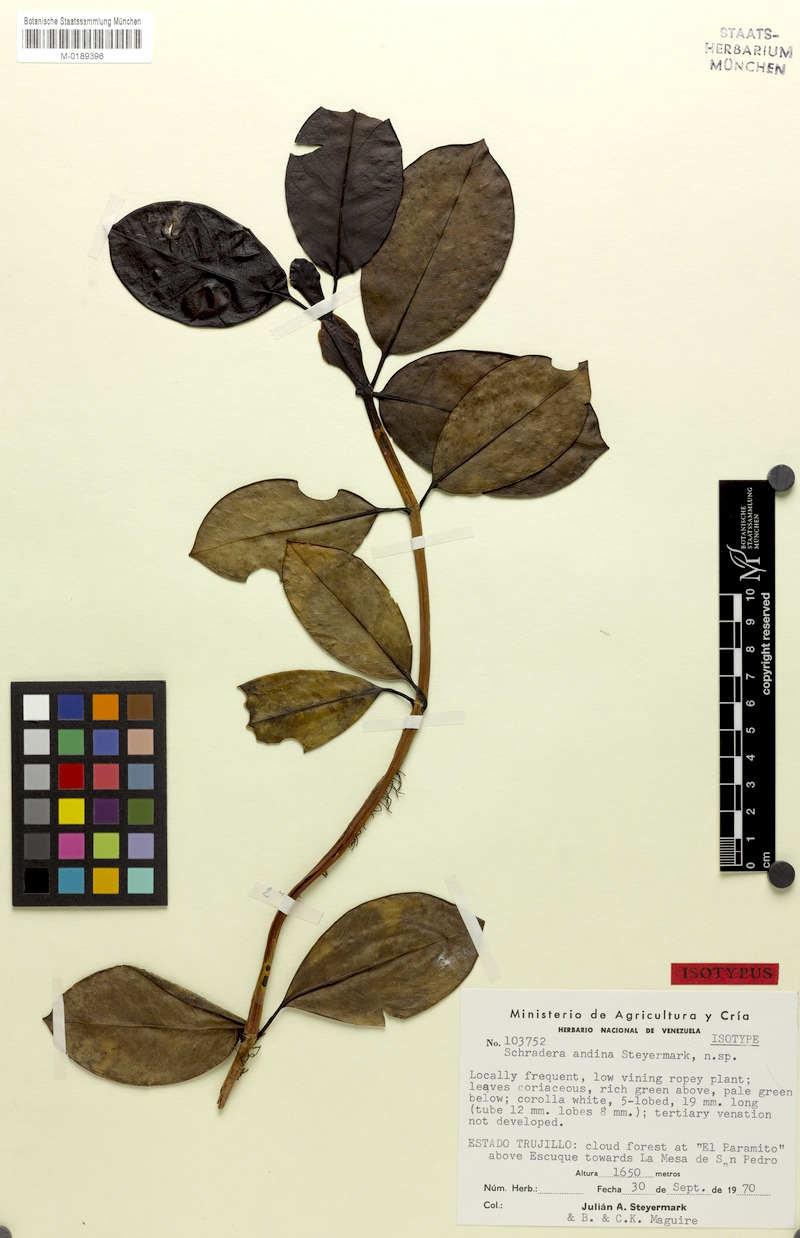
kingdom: Plantae
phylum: Tracheophyta
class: Magnoliopsida
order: Gentianales
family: Rubiaceae
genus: Schradera
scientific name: Schradera andina
